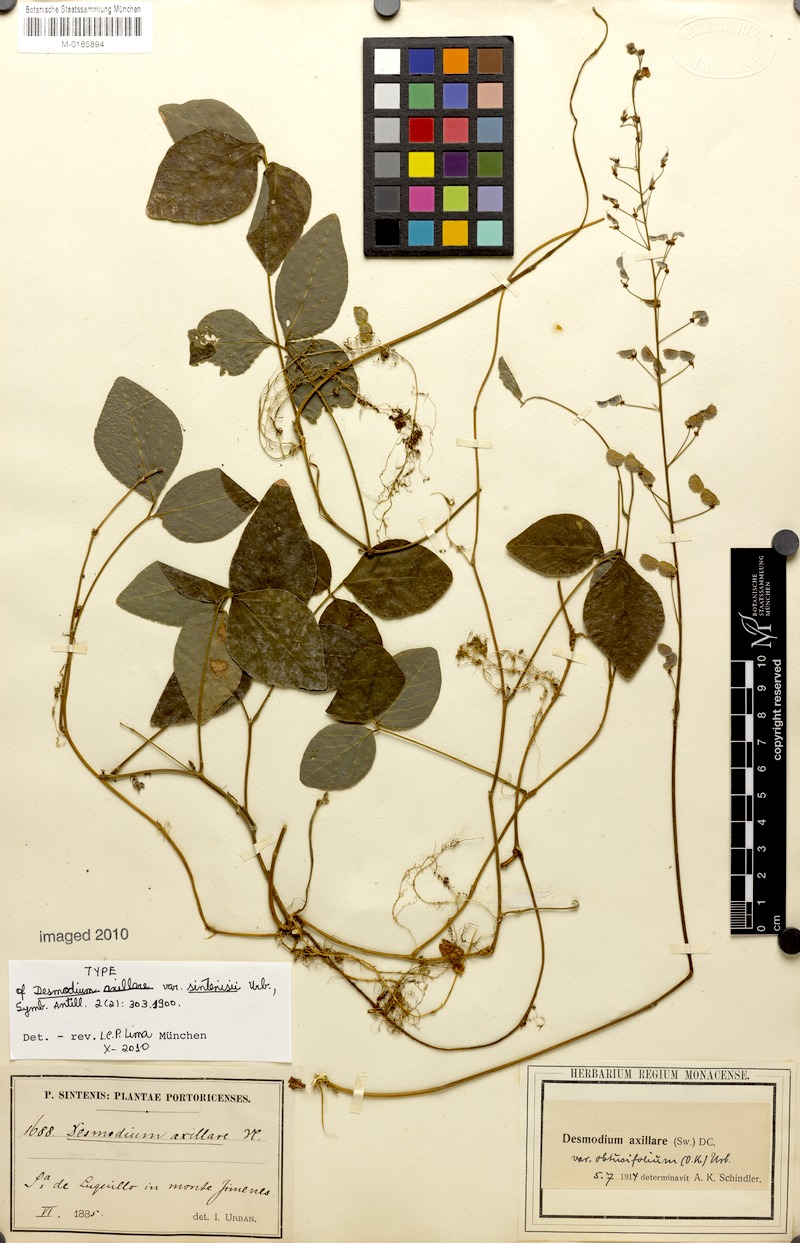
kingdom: Plantae
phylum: Tracheophyta
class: Magnoliopsida
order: Fabales
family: Fabaceae
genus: Desmodium
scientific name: Desmodium axillare
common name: Wire with
